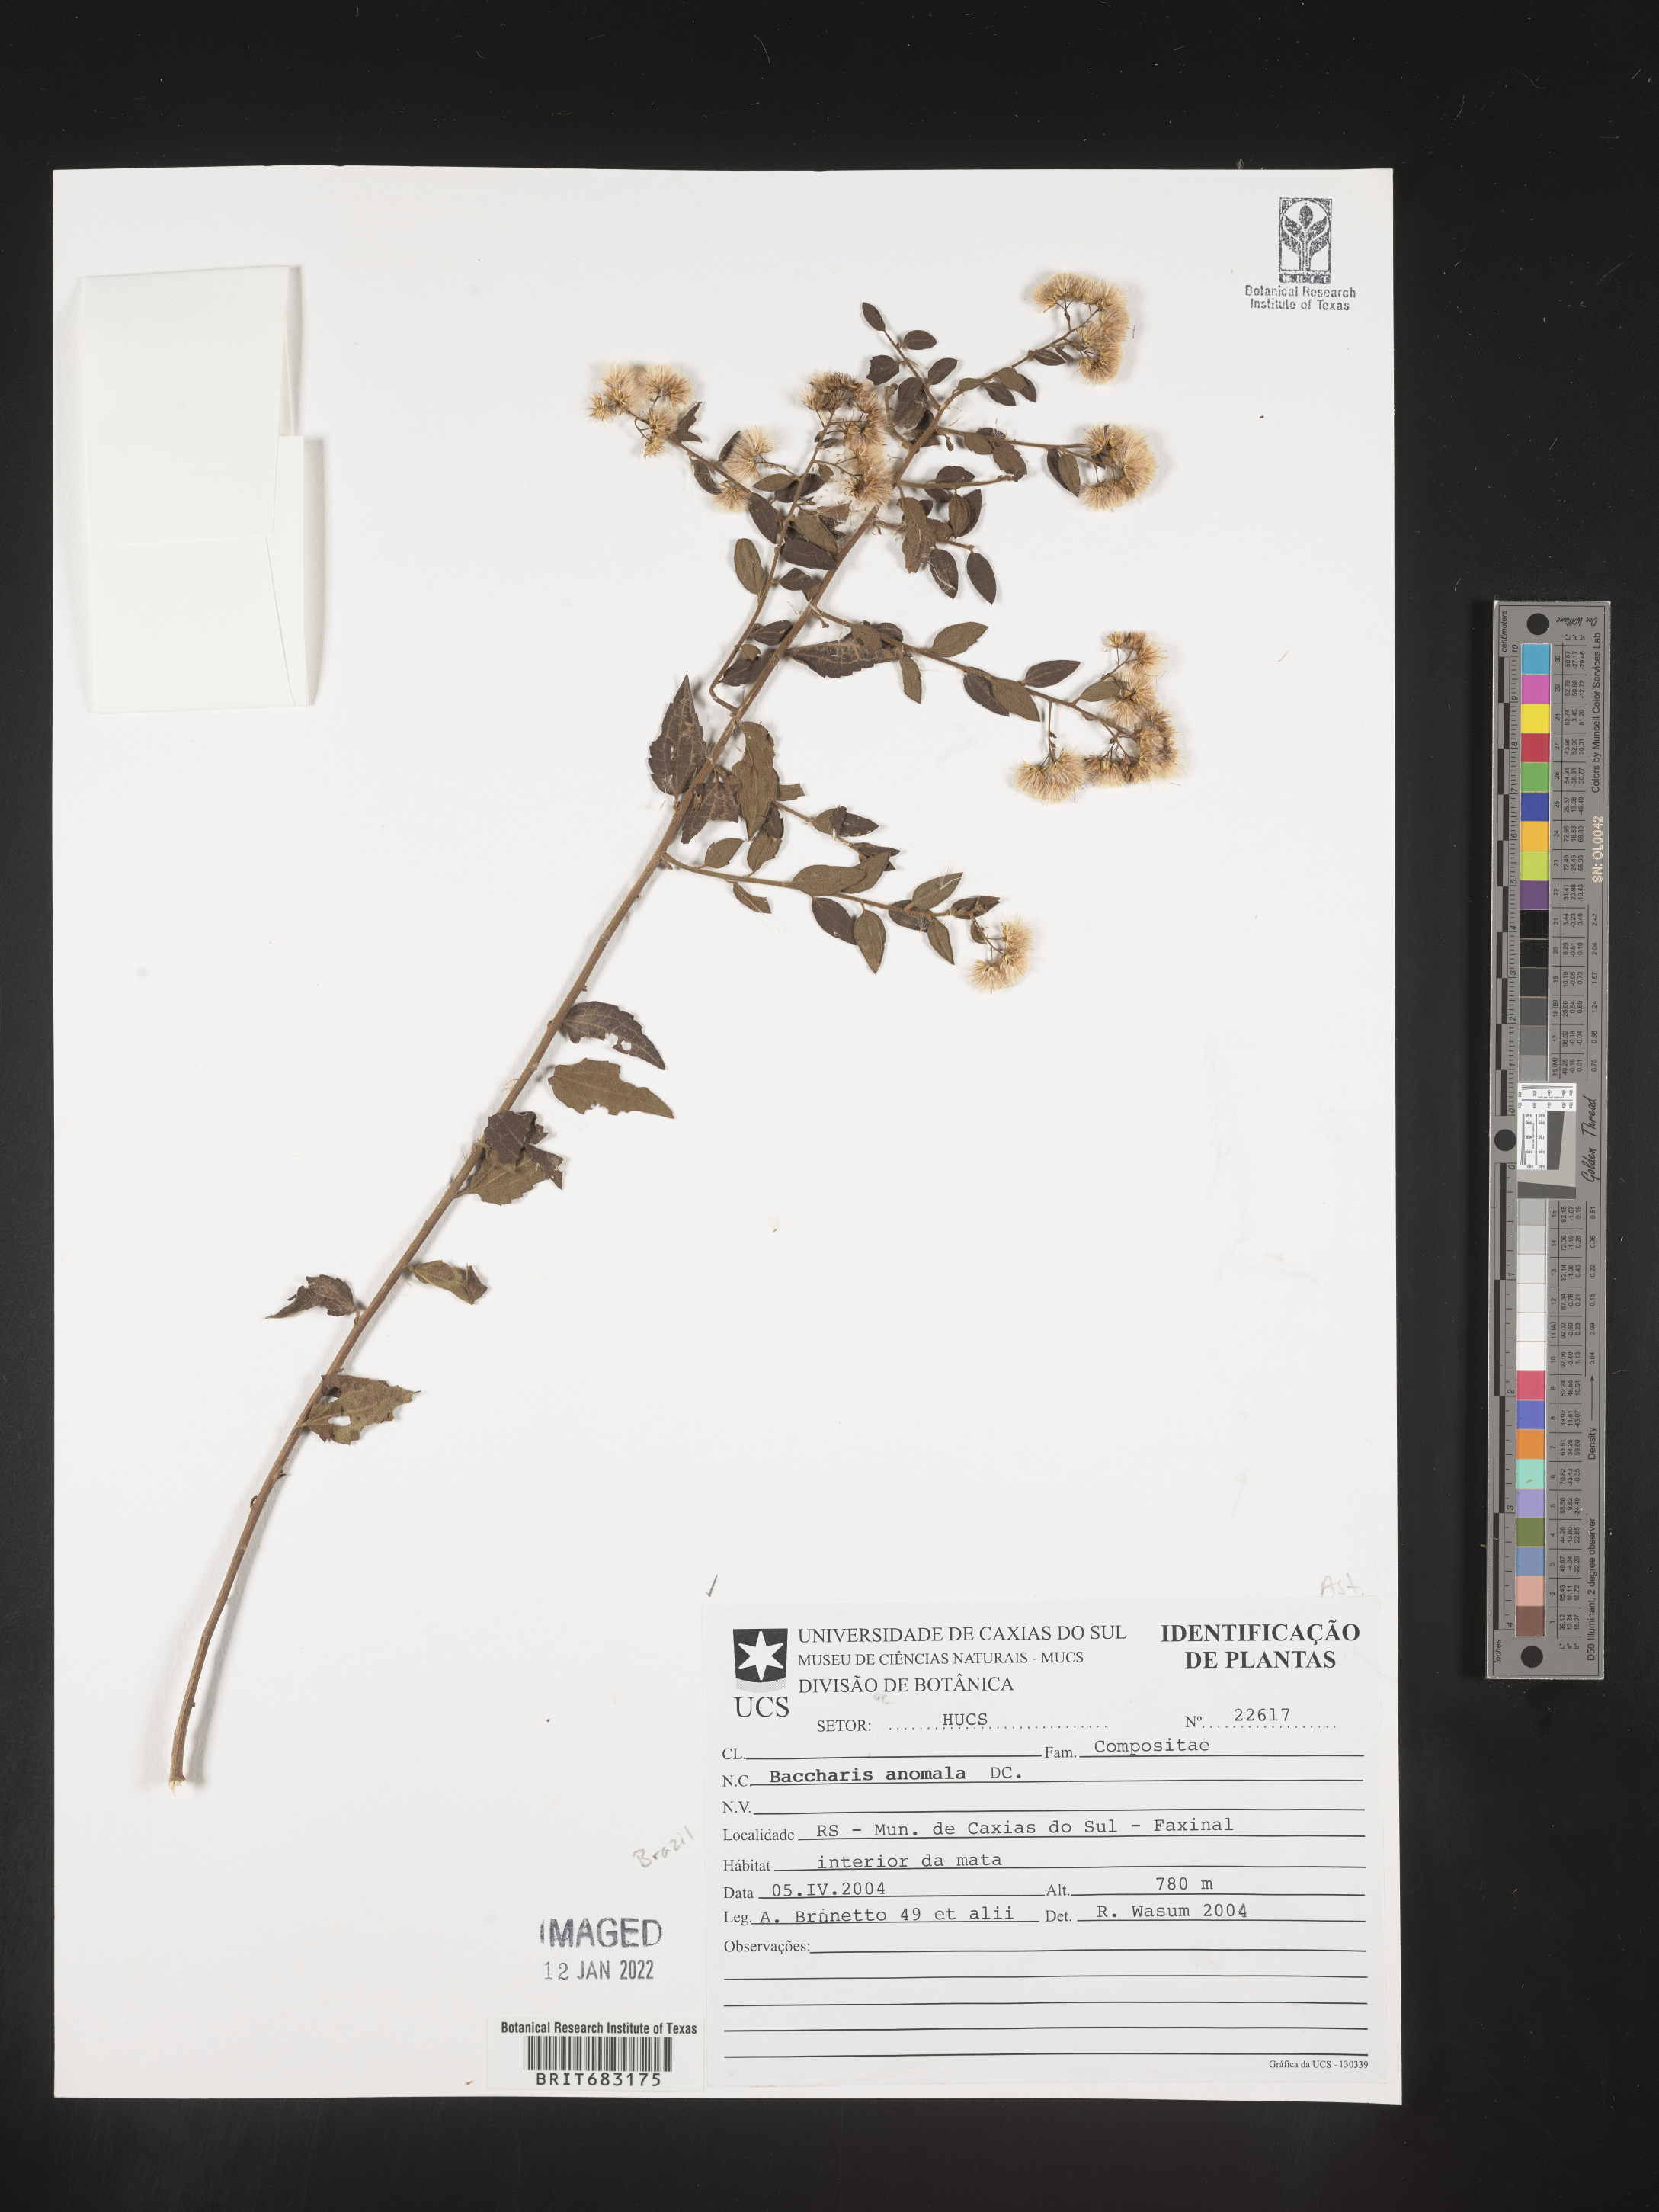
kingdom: Plantae
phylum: Tracheophyta
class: Magnoliopsida
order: Asterales
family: Asteraceae
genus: Baccharis
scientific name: Baccharis
